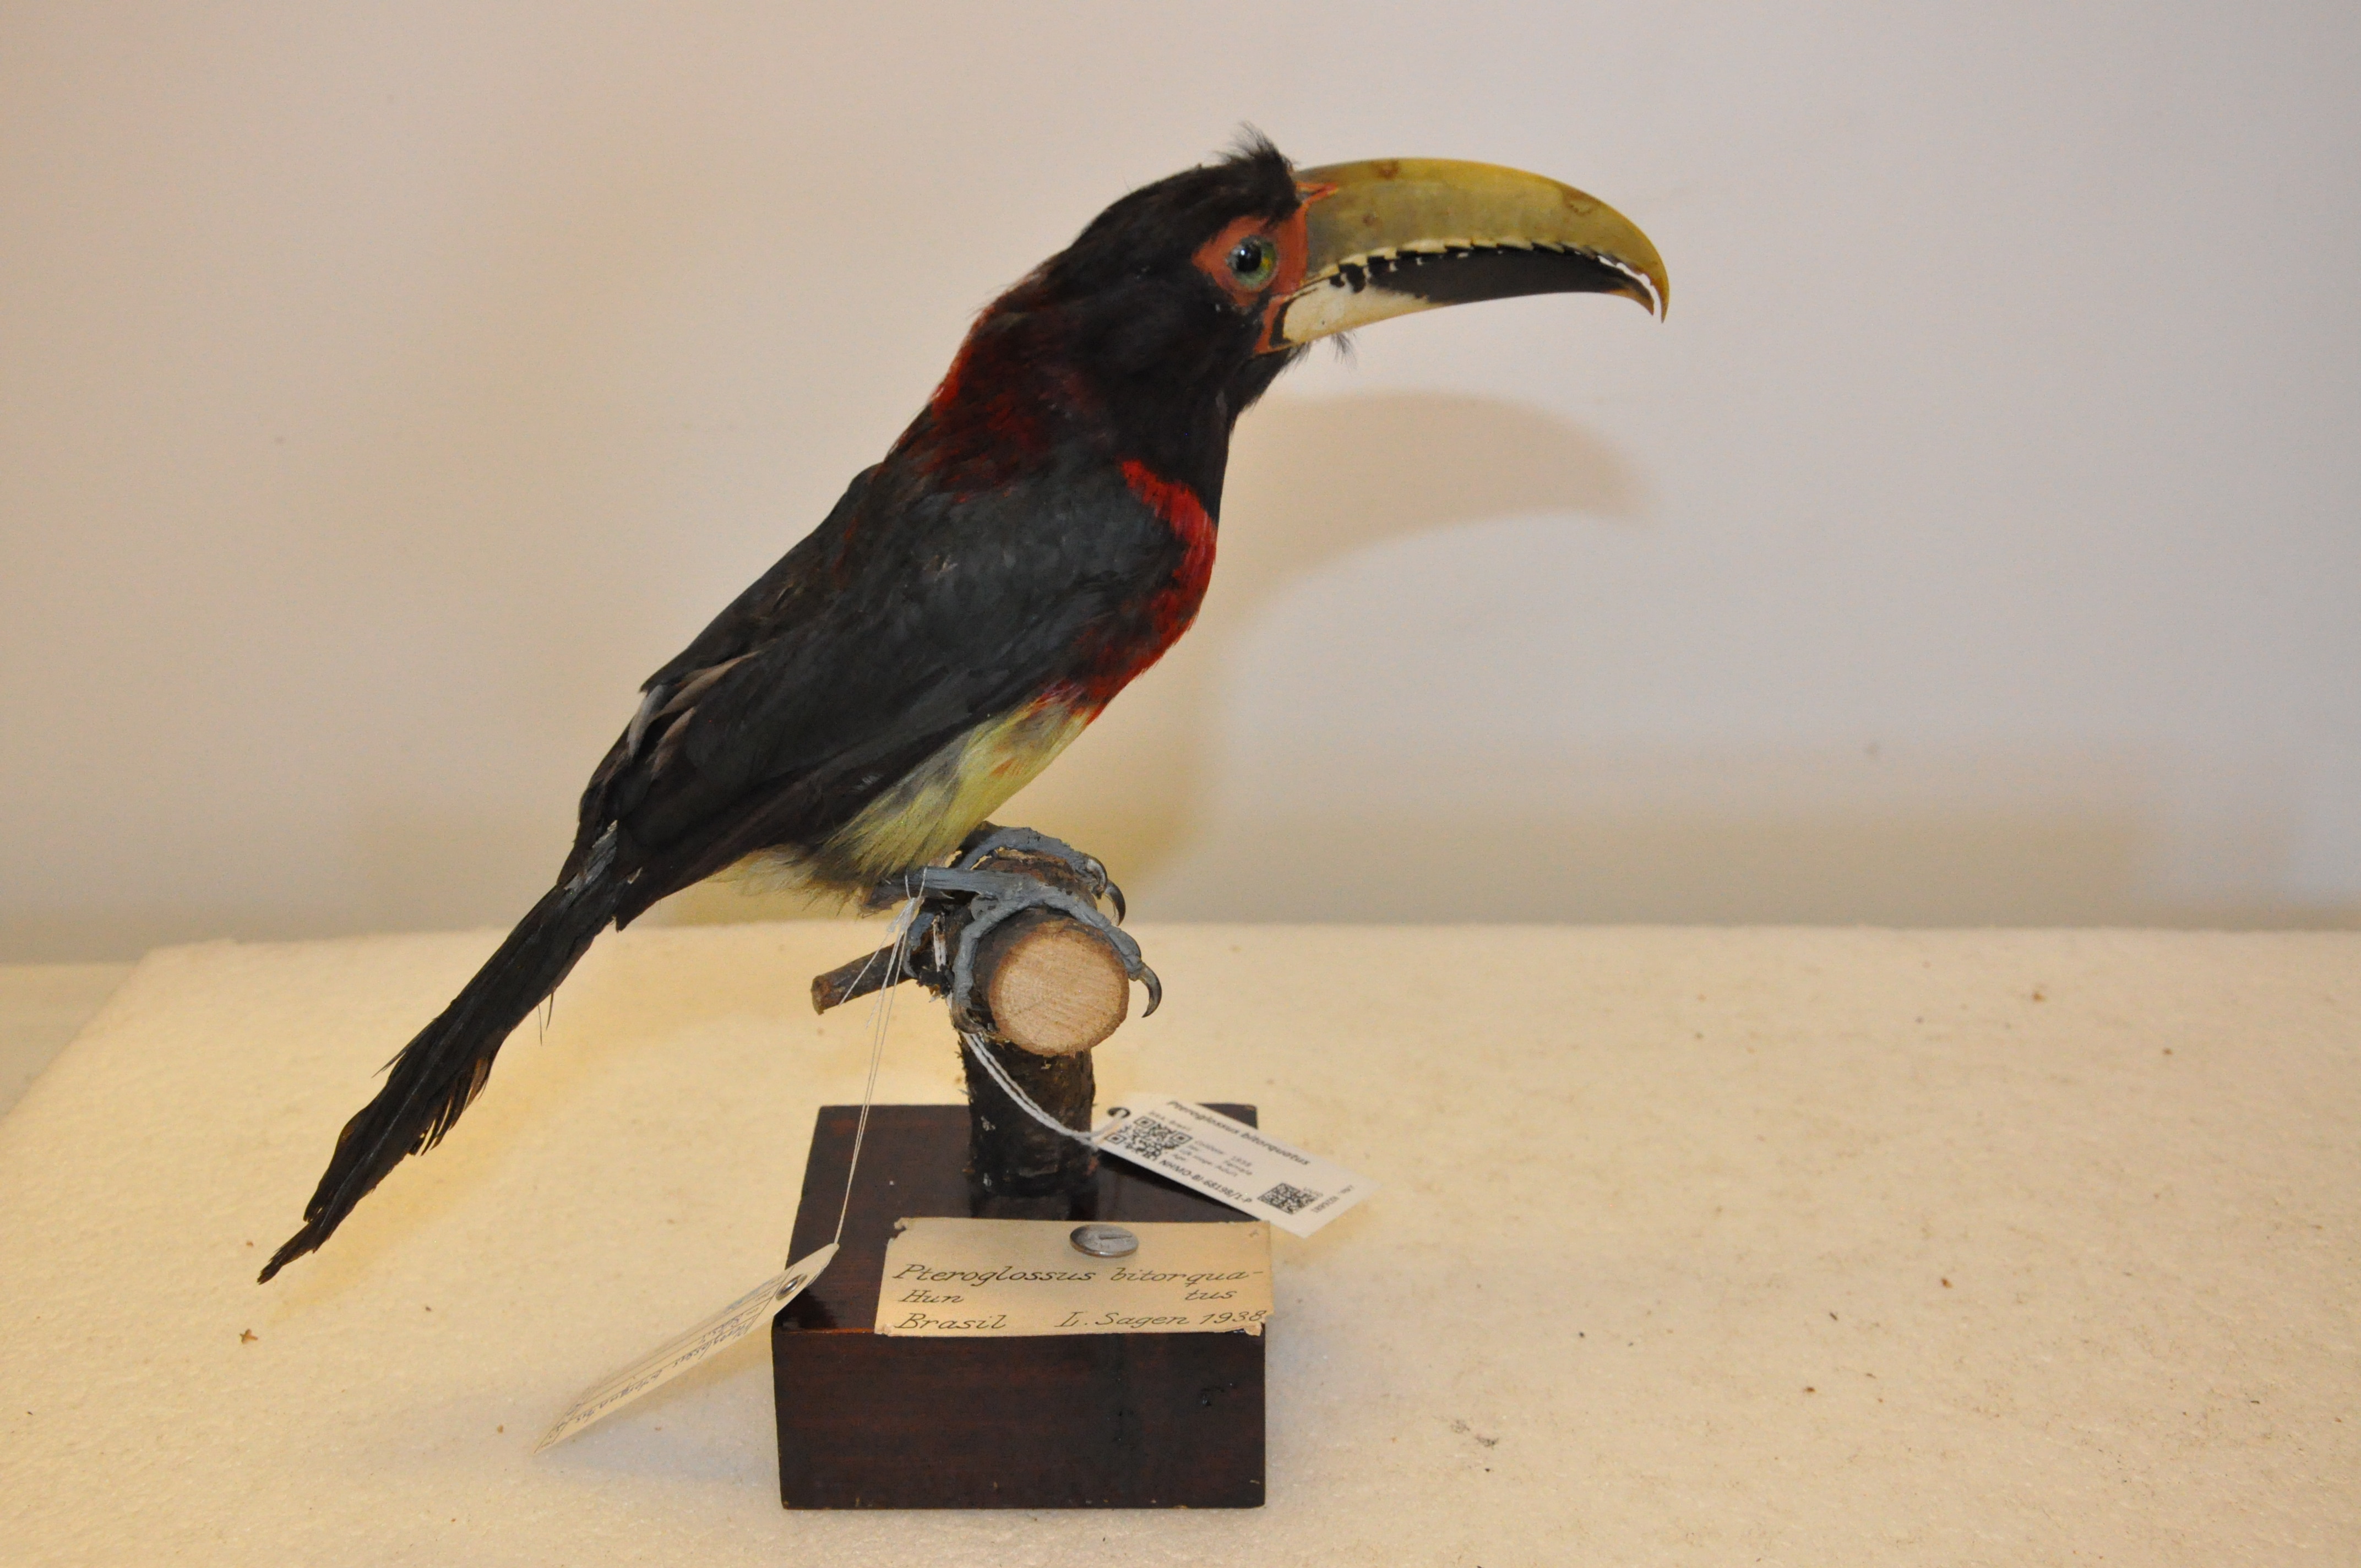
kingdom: Animalia
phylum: Chordata
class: Aves
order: Piciformes
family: Ramphastidae
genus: Pteroglossus
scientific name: Pteroglossus bitorquatus
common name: Red-necked aracari
